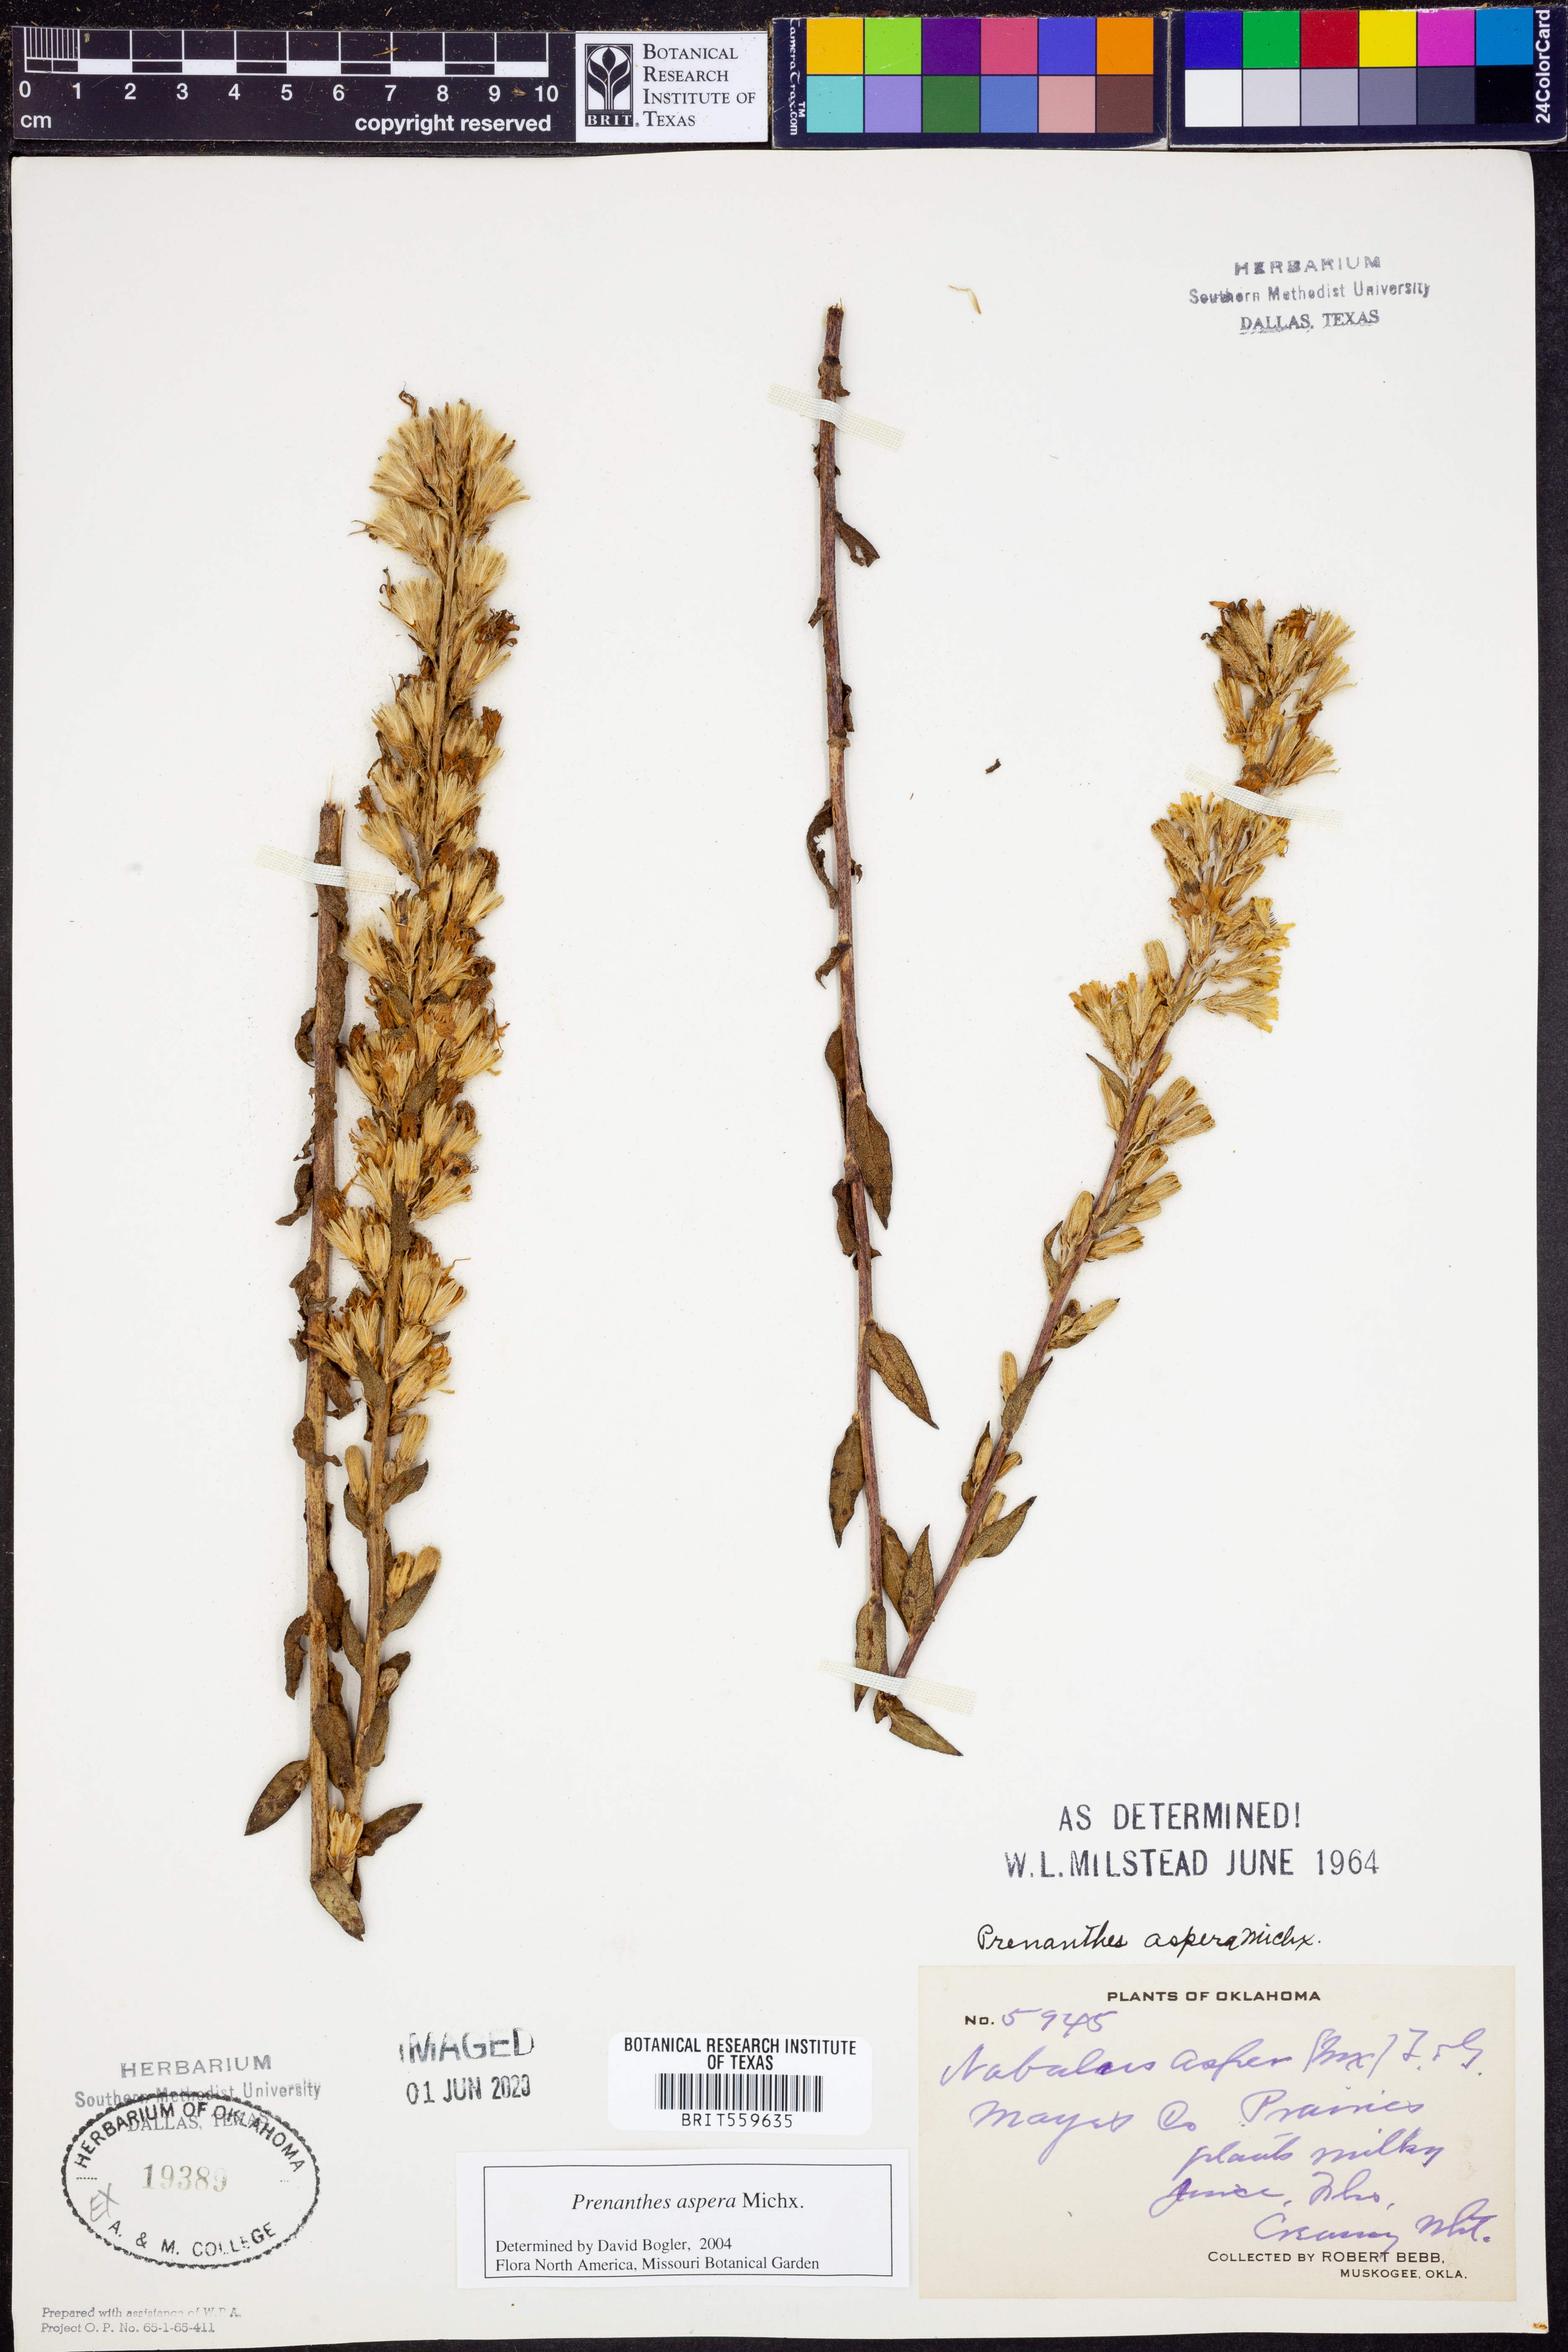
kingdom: Plantae
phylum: Tracheophyta
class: Magnoliopsida
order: Asterales
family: Asteraceae
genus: Nabalus
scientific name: Nabalus asper
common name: Rough rattlesnakeroot
